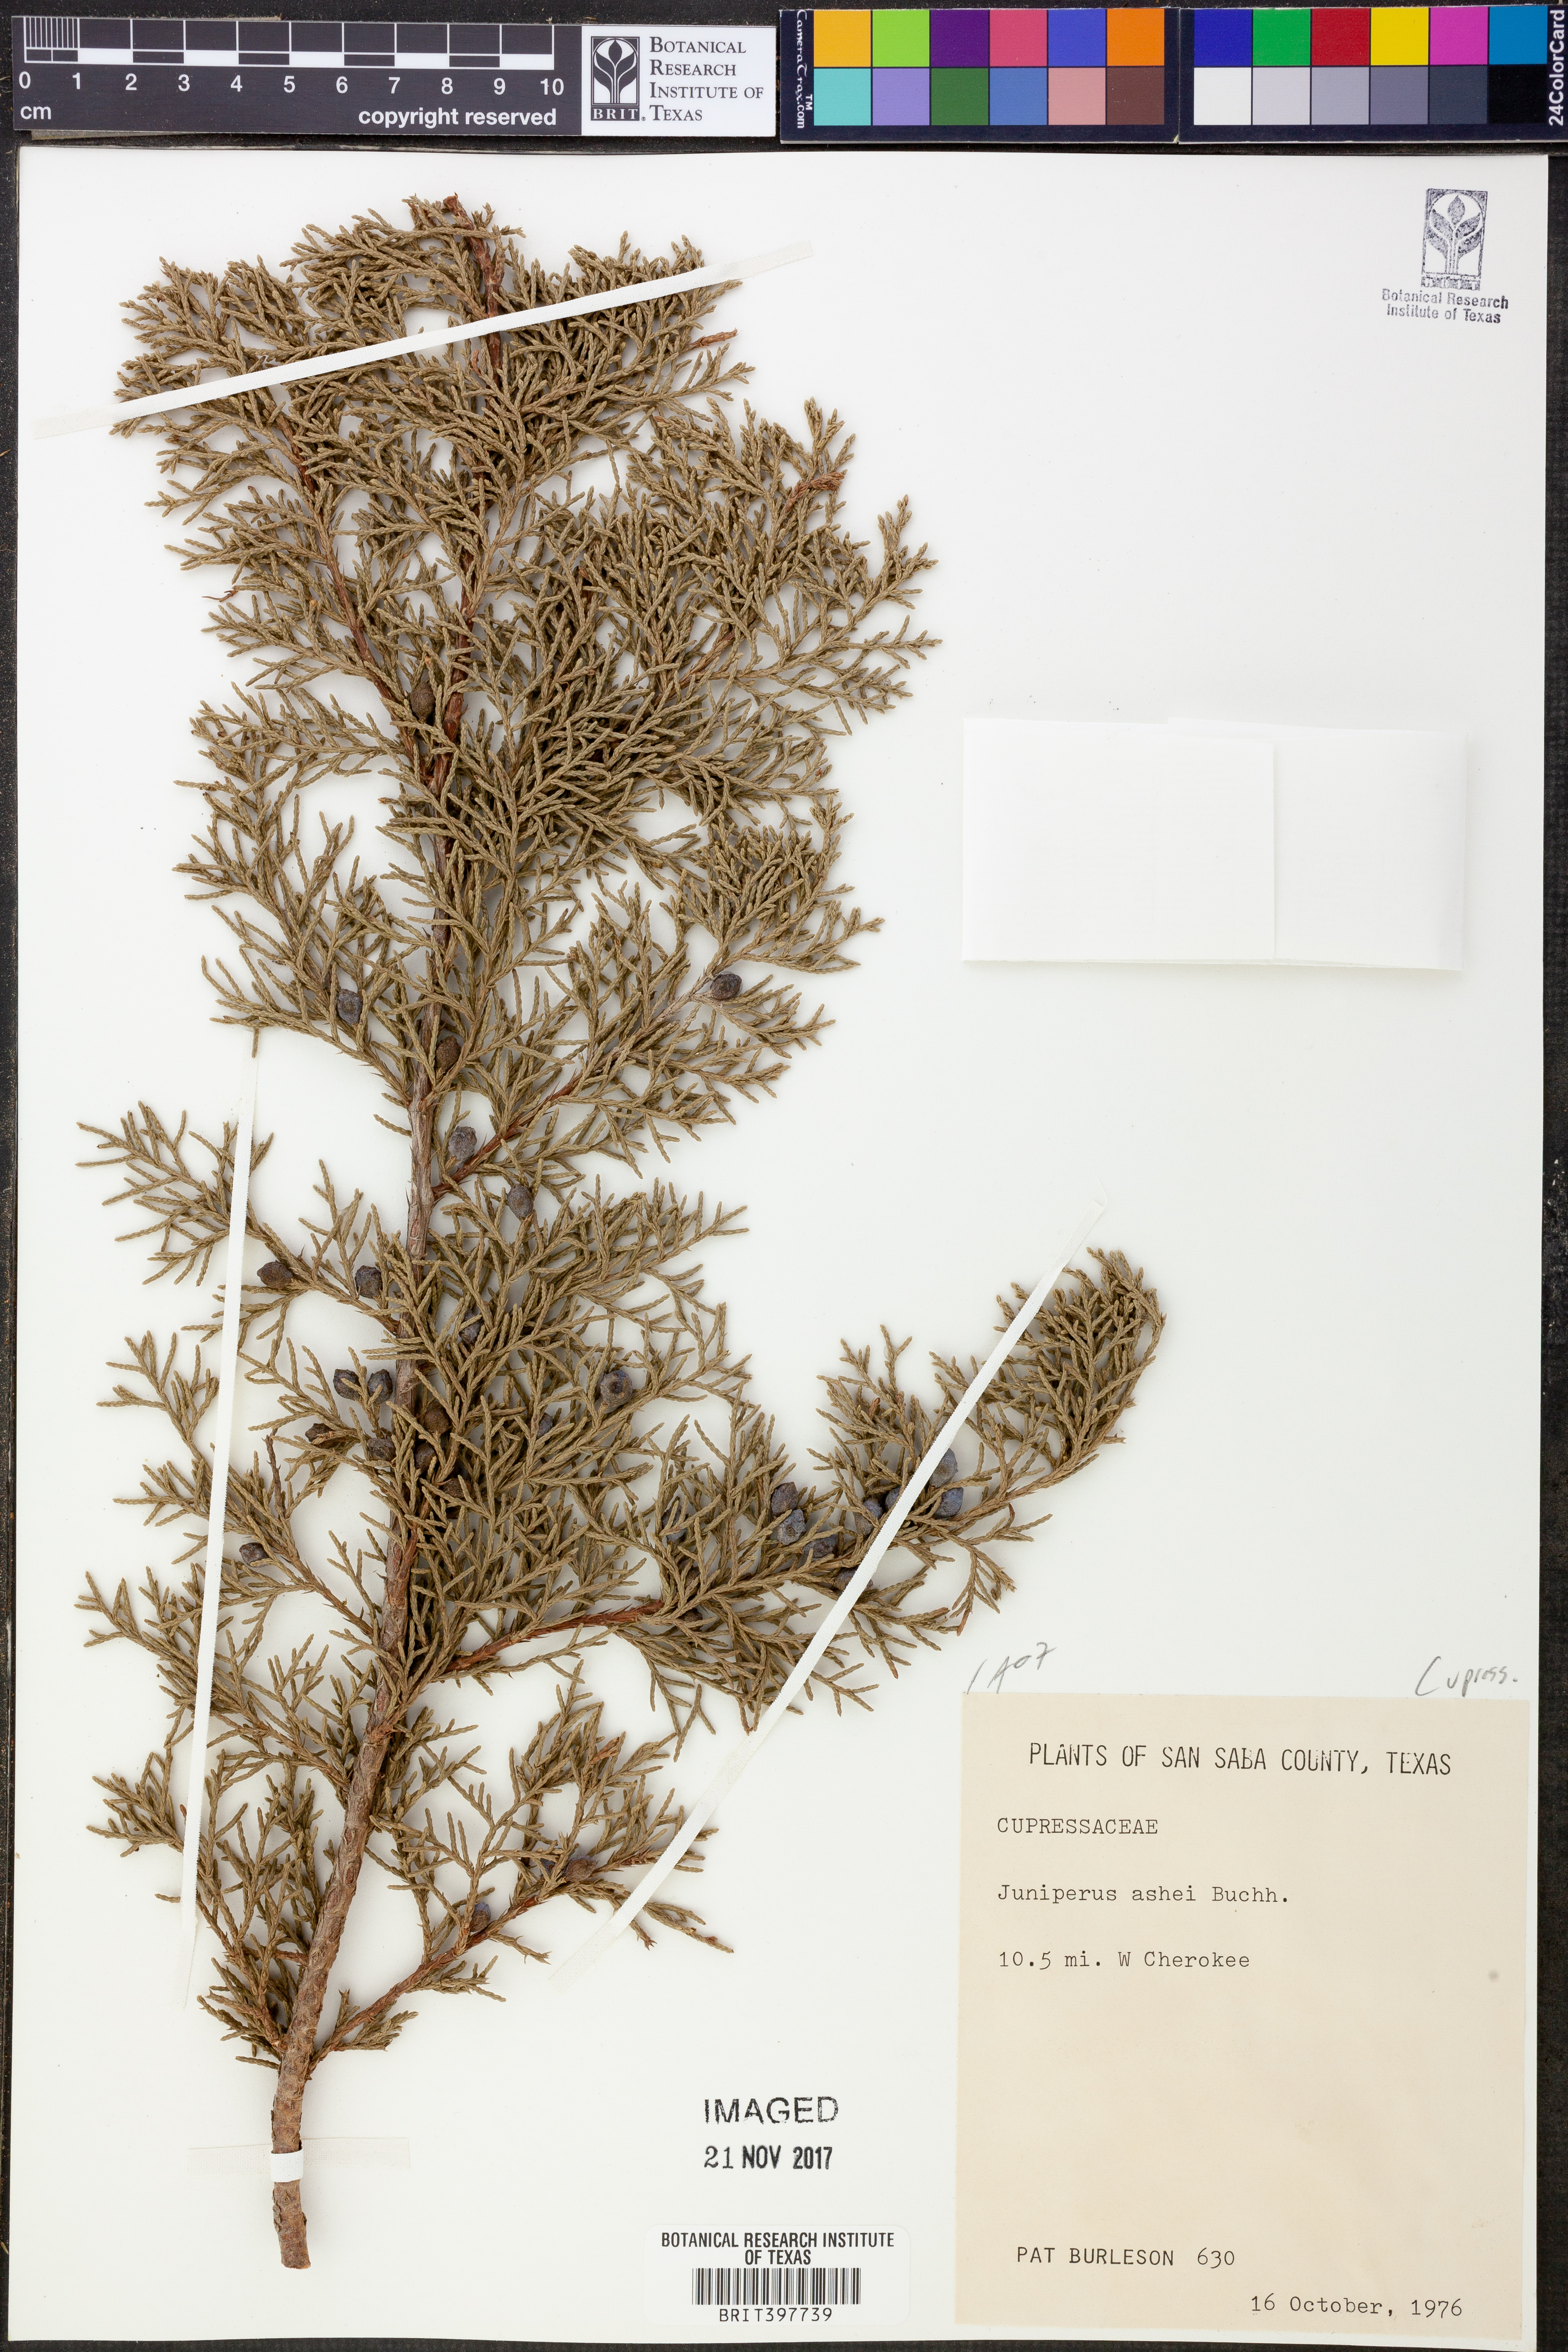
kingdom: Plantae
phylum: Tracheophyta
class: Pinopsida
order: Pinales
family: Cupressaceae
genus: Juniperus
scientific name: Juniperus ashei
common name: Mexican juniper
